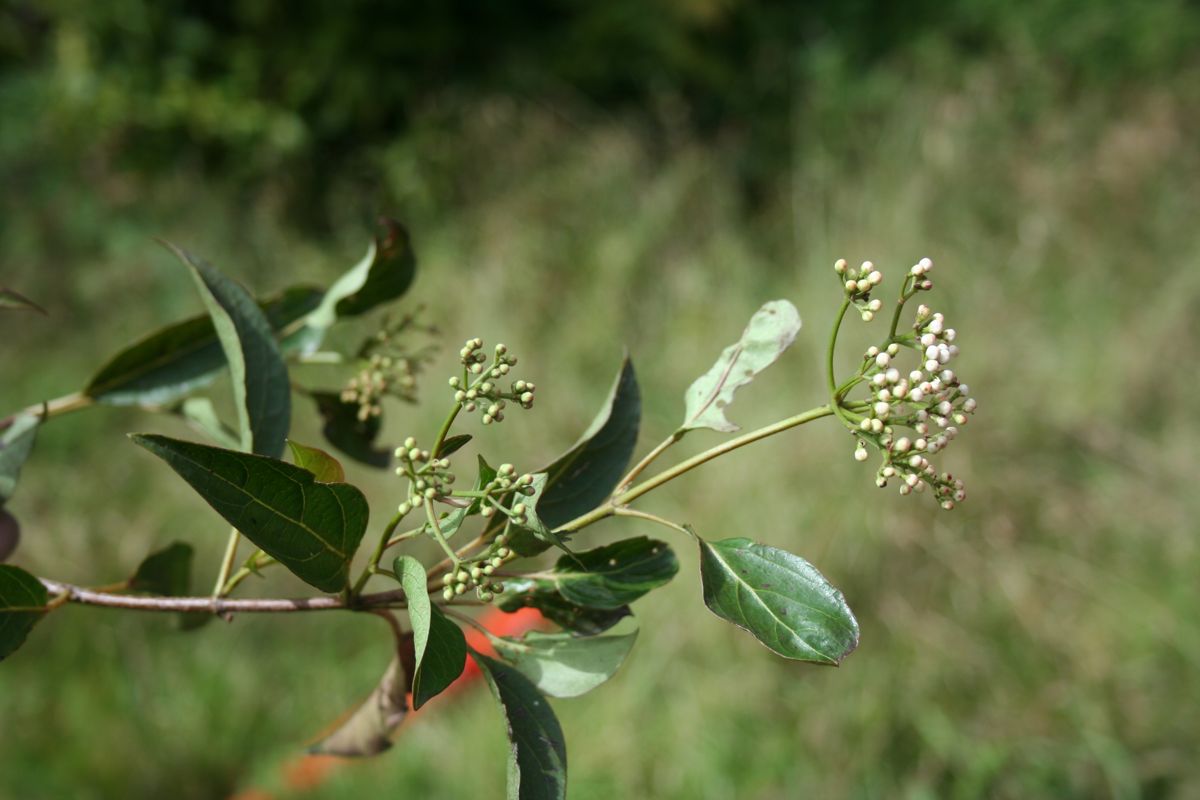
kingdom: Plantae
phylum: Tracheophyta
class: Magnoliopsida
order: Dipsacales
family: Viburnaceae
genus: Viburnum
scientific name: Viburnum hartwegii
